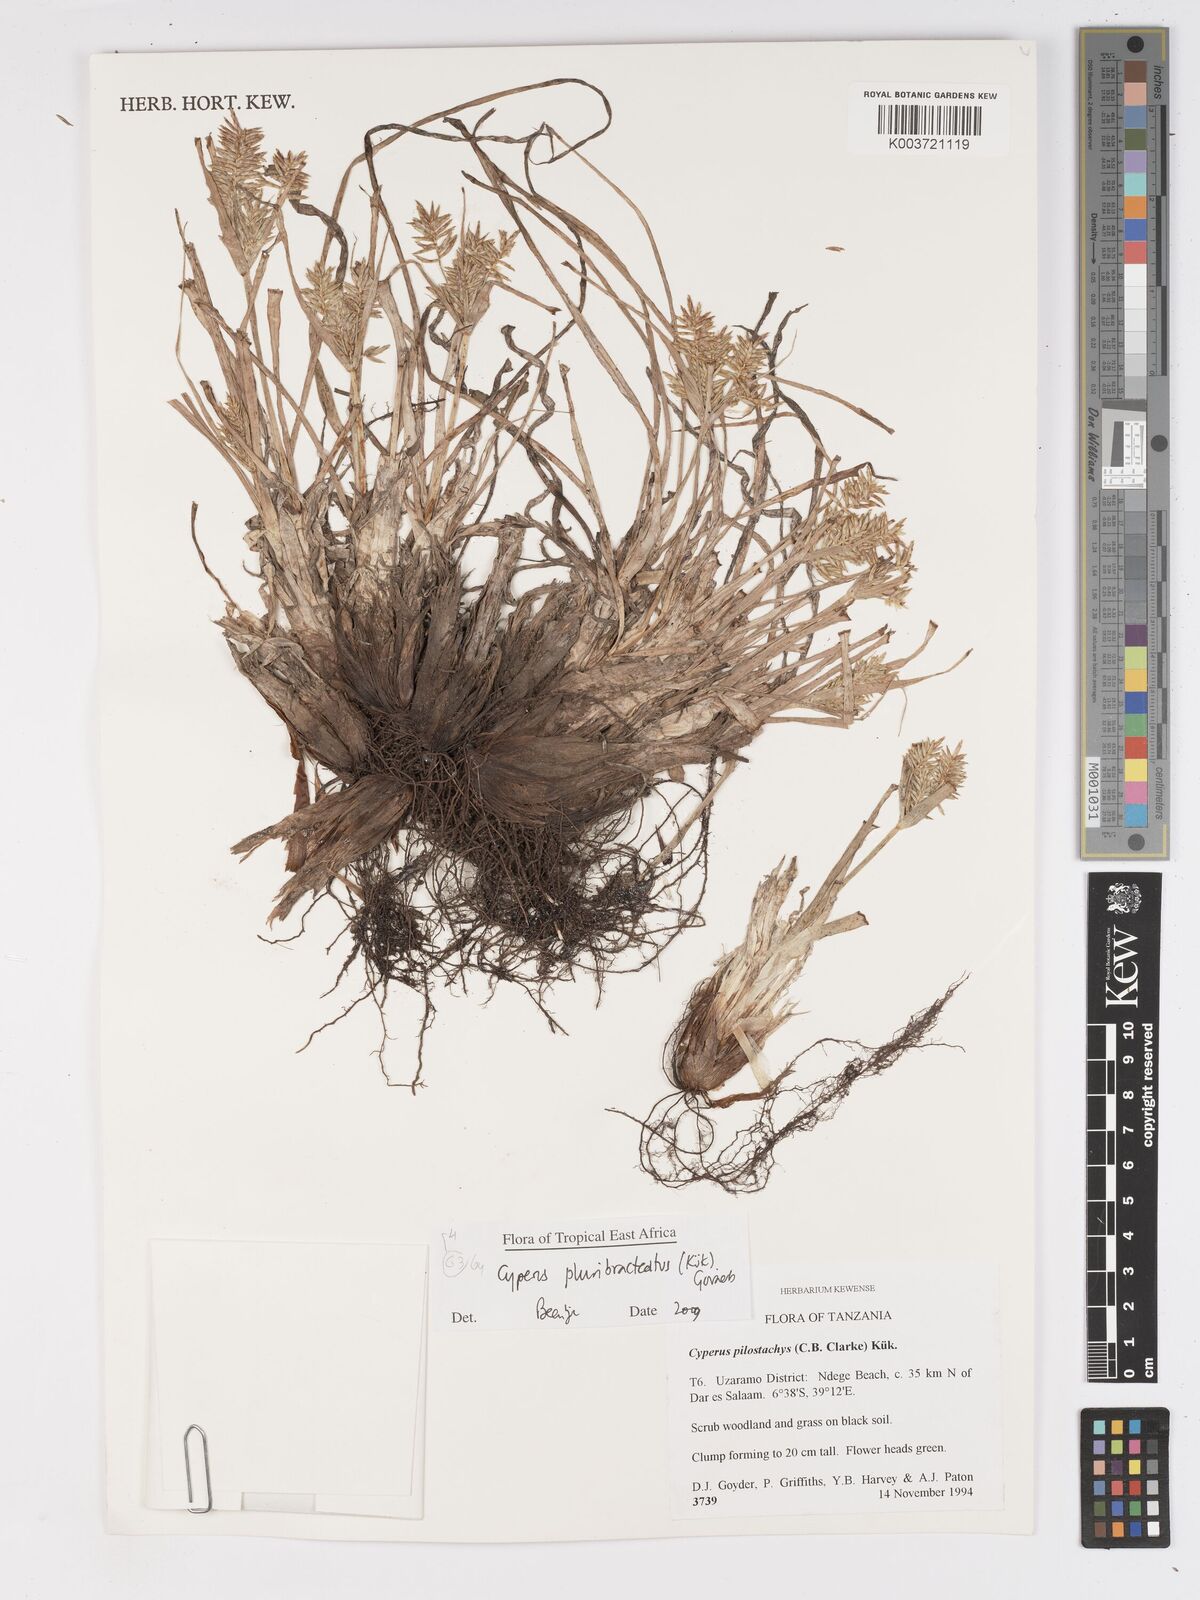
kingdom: Plantae
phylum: Tracheophyta
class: Liliopsida
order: Poales
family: Cyperaceae
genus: Cyperus
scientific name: Cyperus trigonellus
